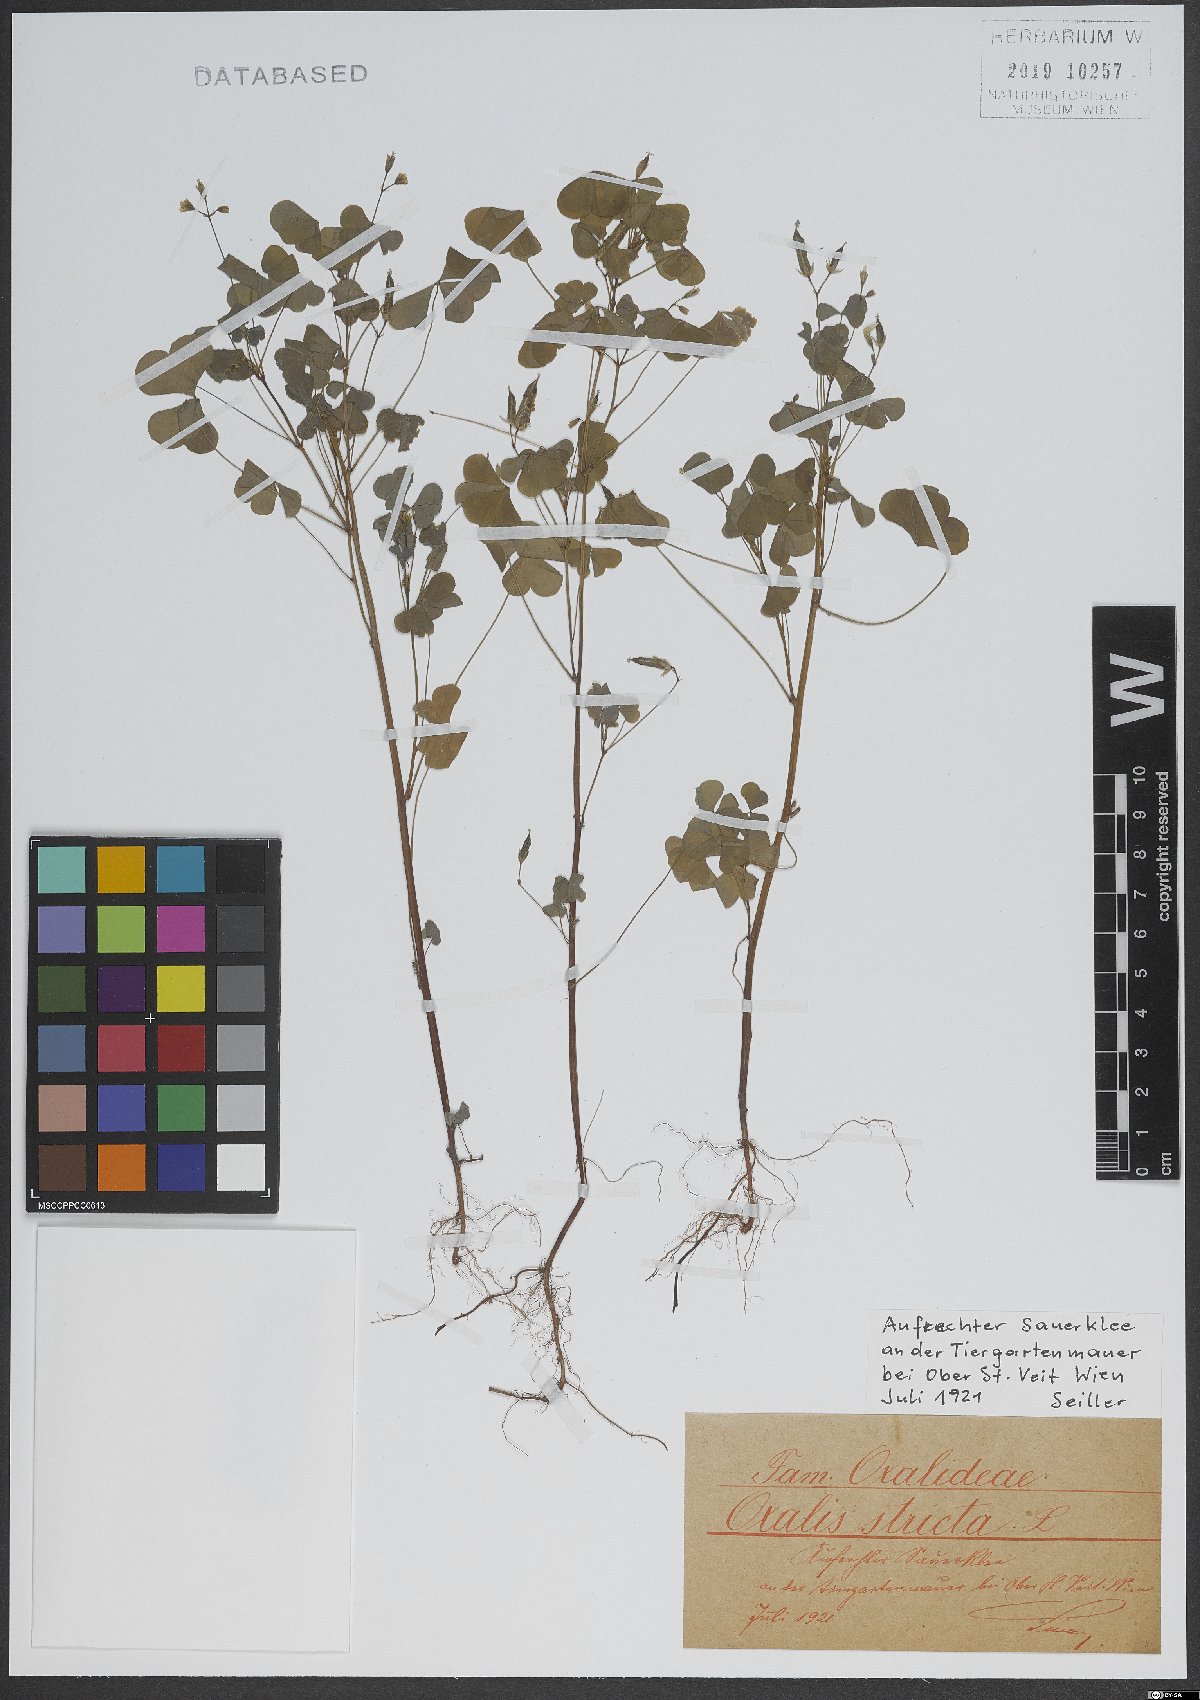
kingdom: Plantae
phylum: Tracheophyta
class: Magnoliopsida
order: Oxalidales
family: Oxalidaceae
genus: Oxalis
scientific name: Oxalis stricta
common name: Upright yellow-sorrel
